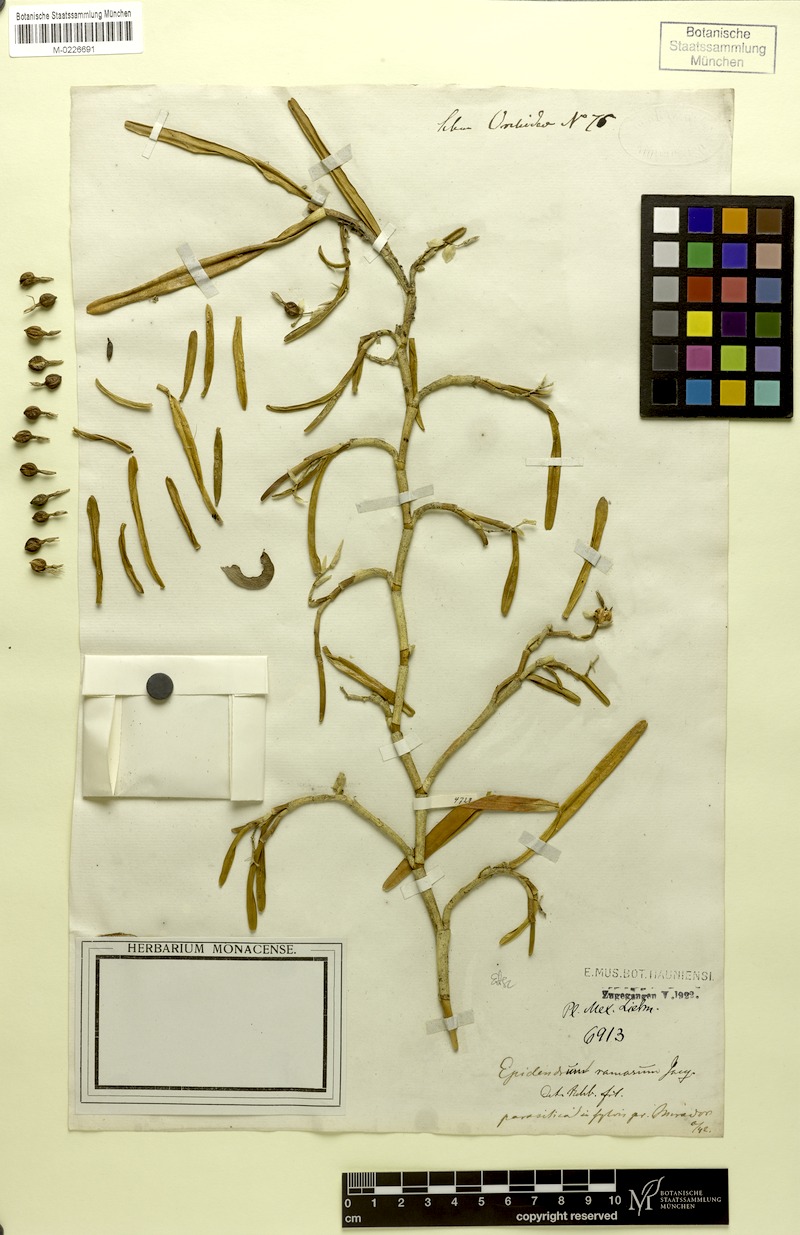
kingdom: Plantae
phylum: Tracheophyta
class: Liliopsida
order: Asparagales
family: Orchidaceae
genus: Epidendrum
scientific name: Epidendrum ramosum
